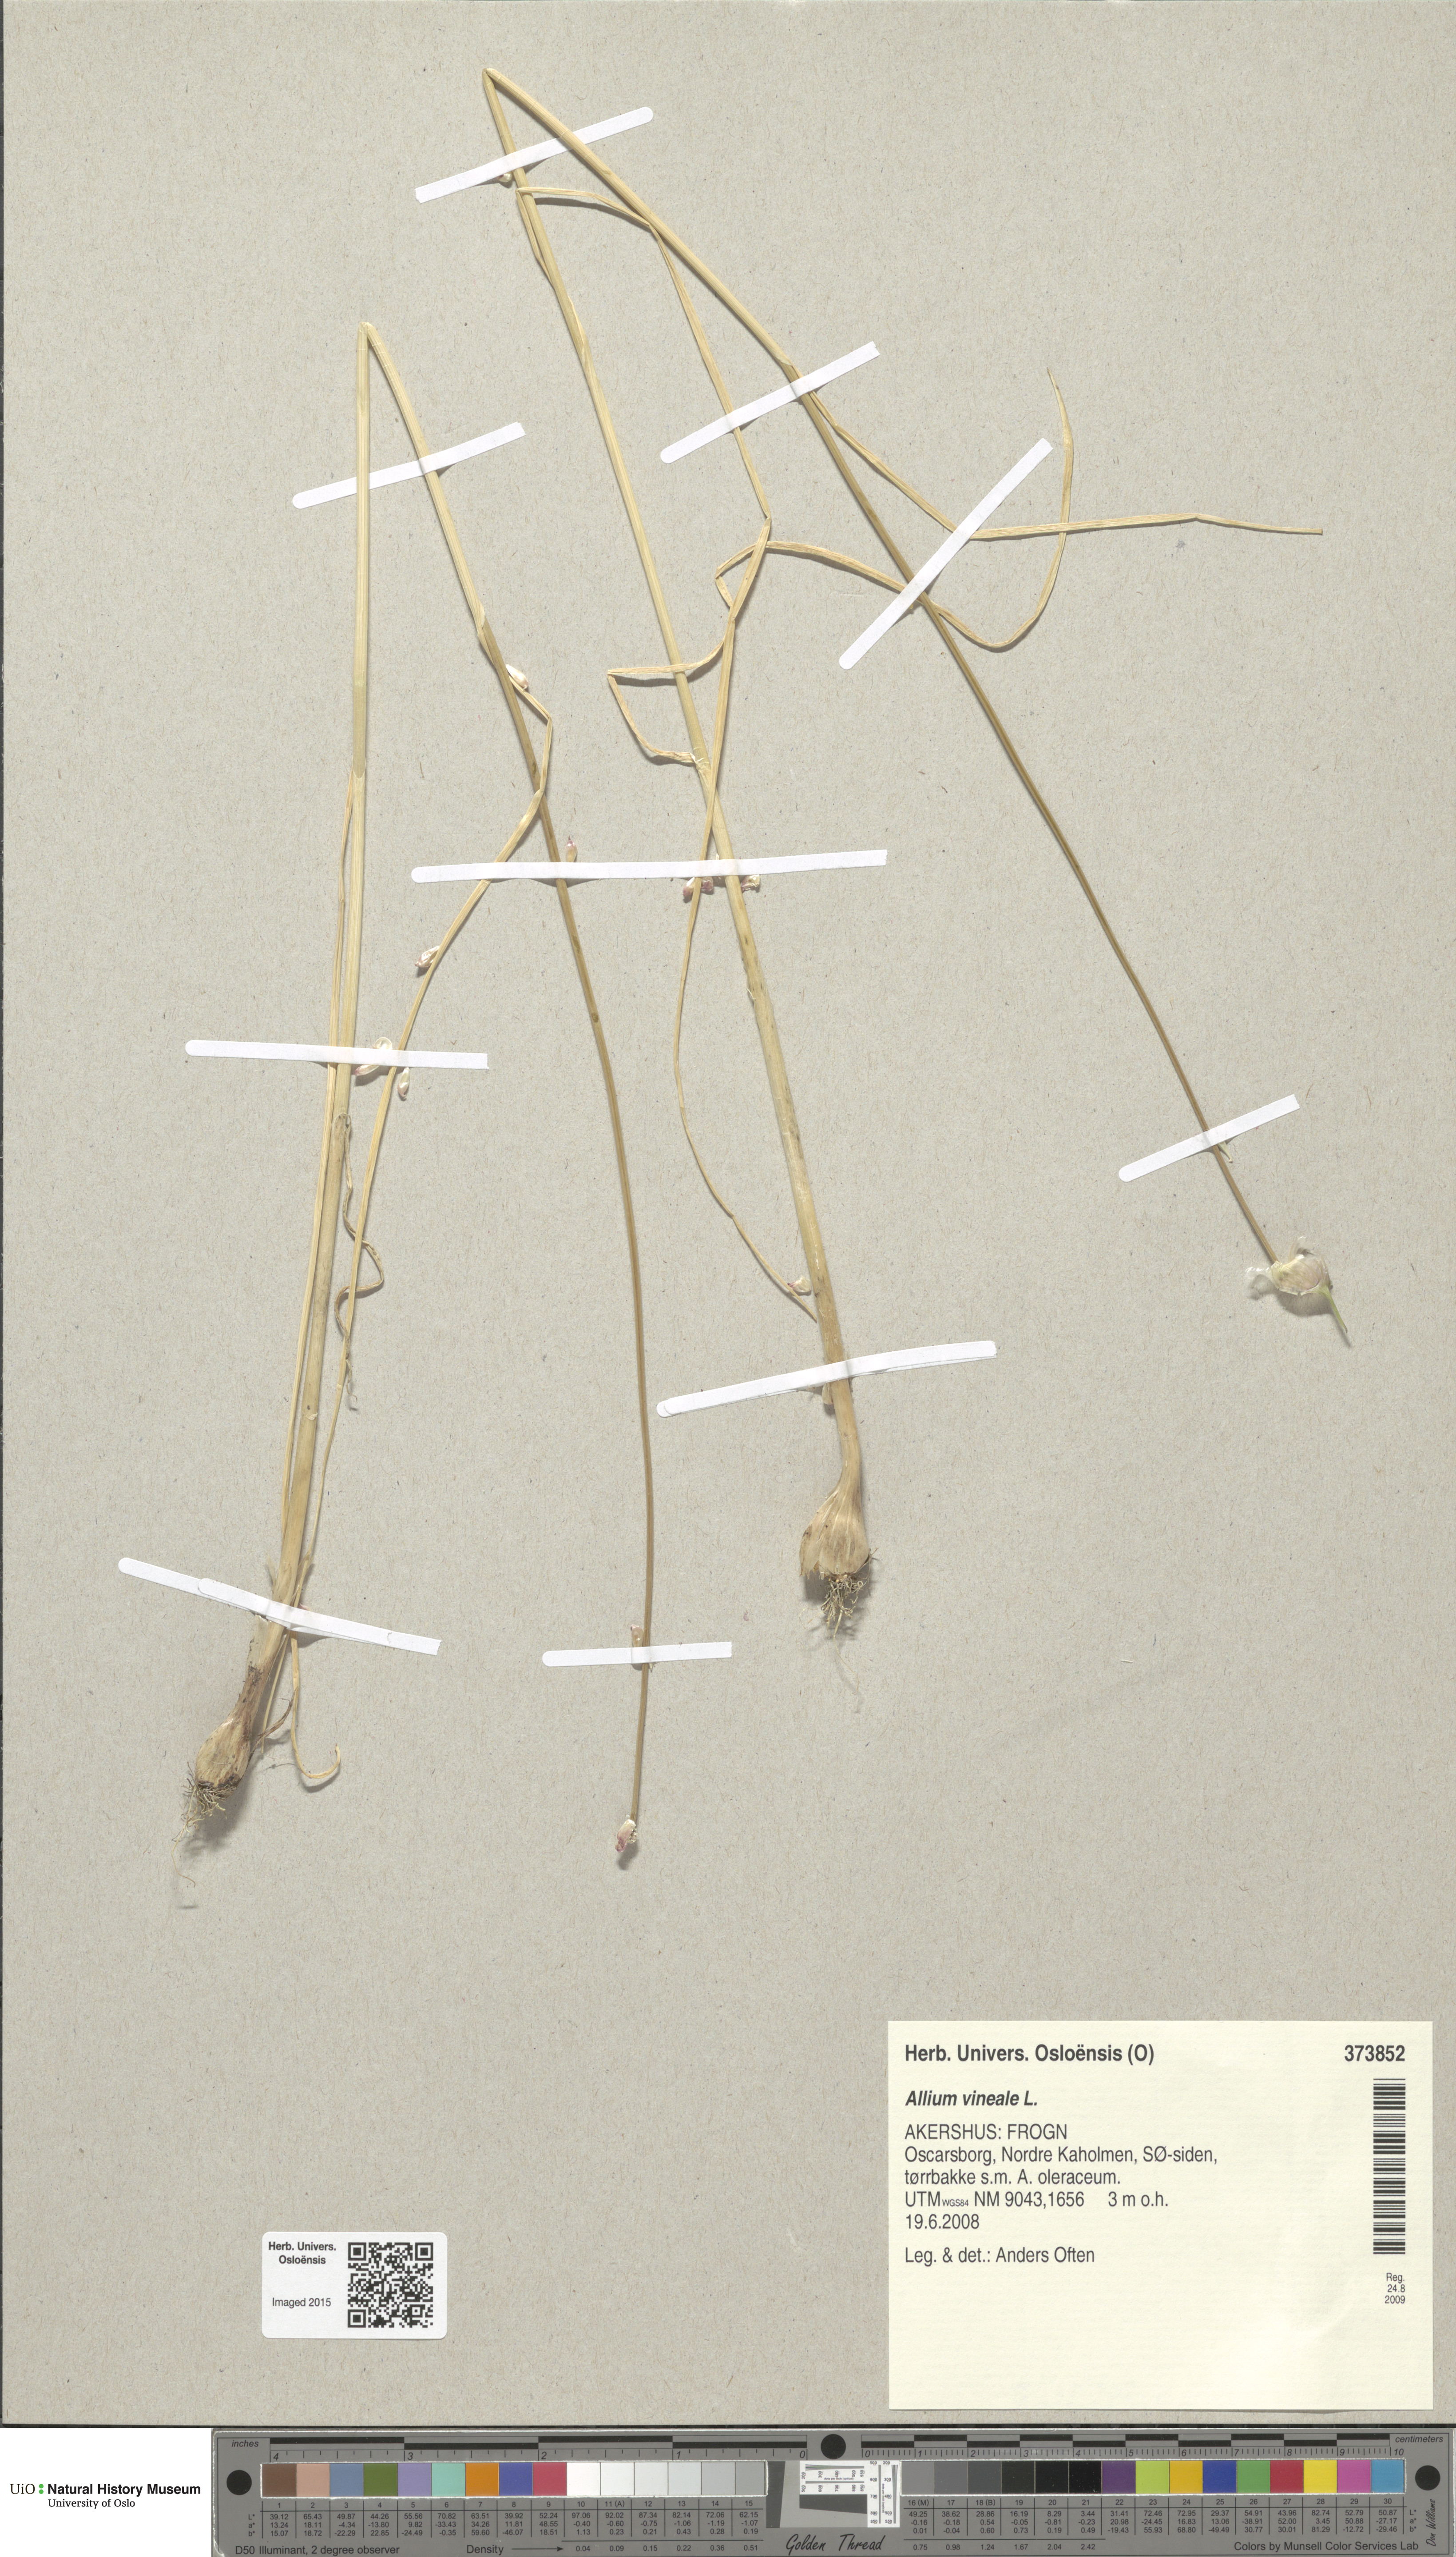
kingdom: Plantae
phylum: Tracheophyta
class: Liliopsida
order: Asparagales
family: Amaryllidaceae
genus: Allium
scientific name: Allium vineale
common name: Crow garlic
